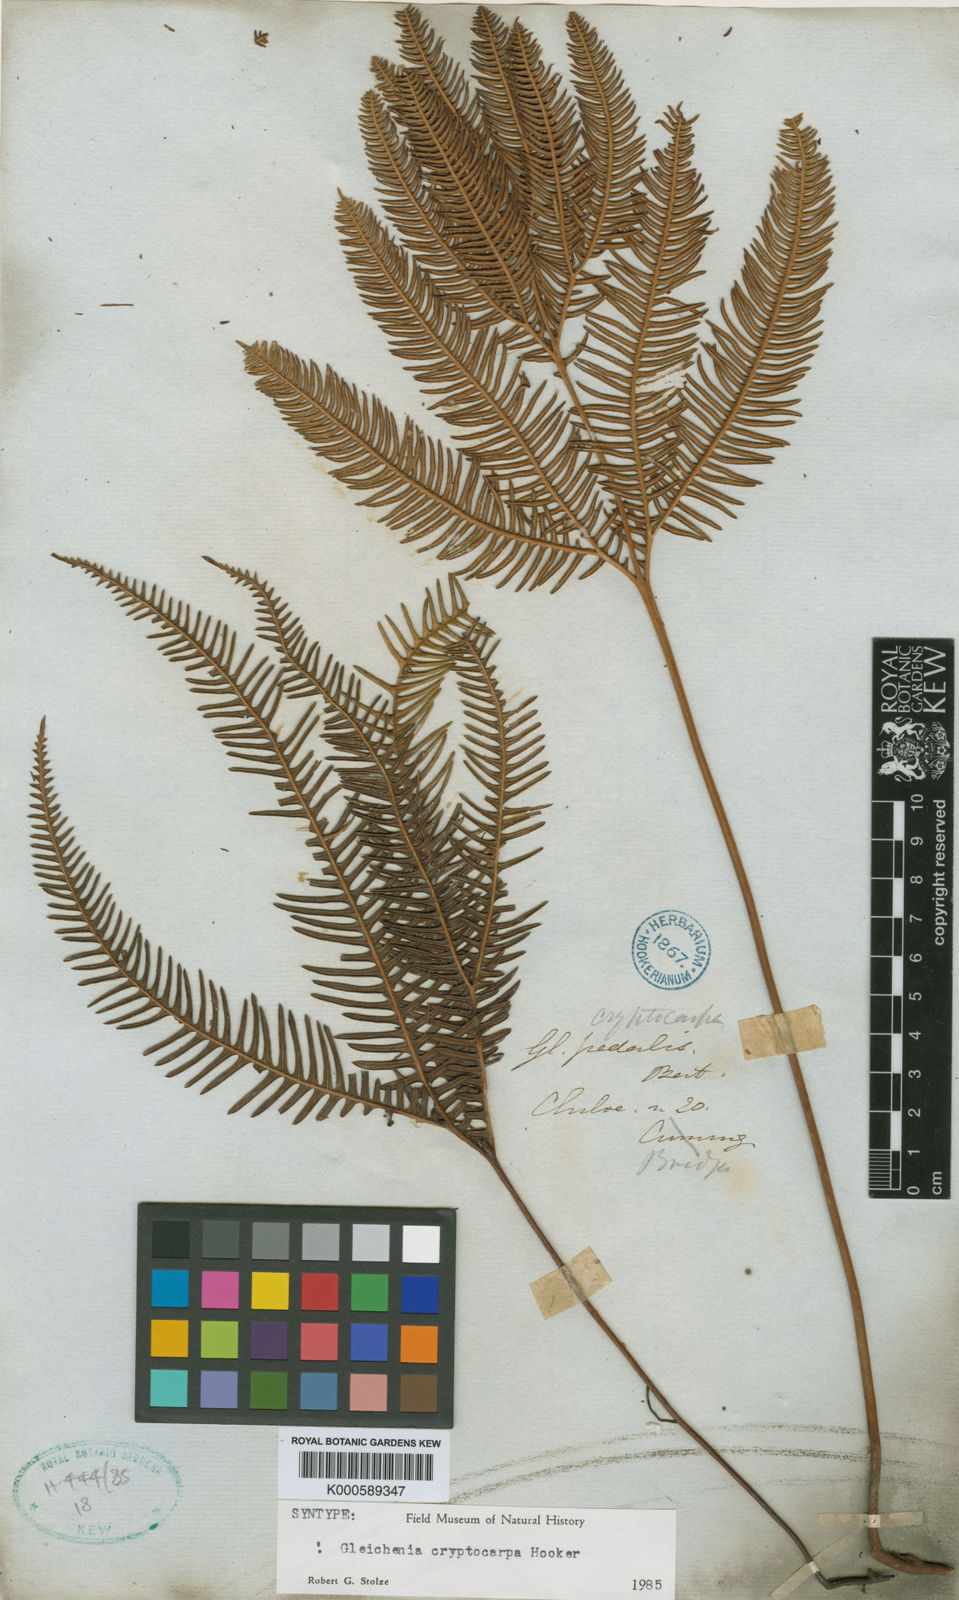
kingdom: Plantae
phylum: Tracheophyta
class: Polypodiopsida
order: Gleicheniales
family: Gleicheniaceae
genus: Sticherus
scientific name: Sticherus cryptocarpus
